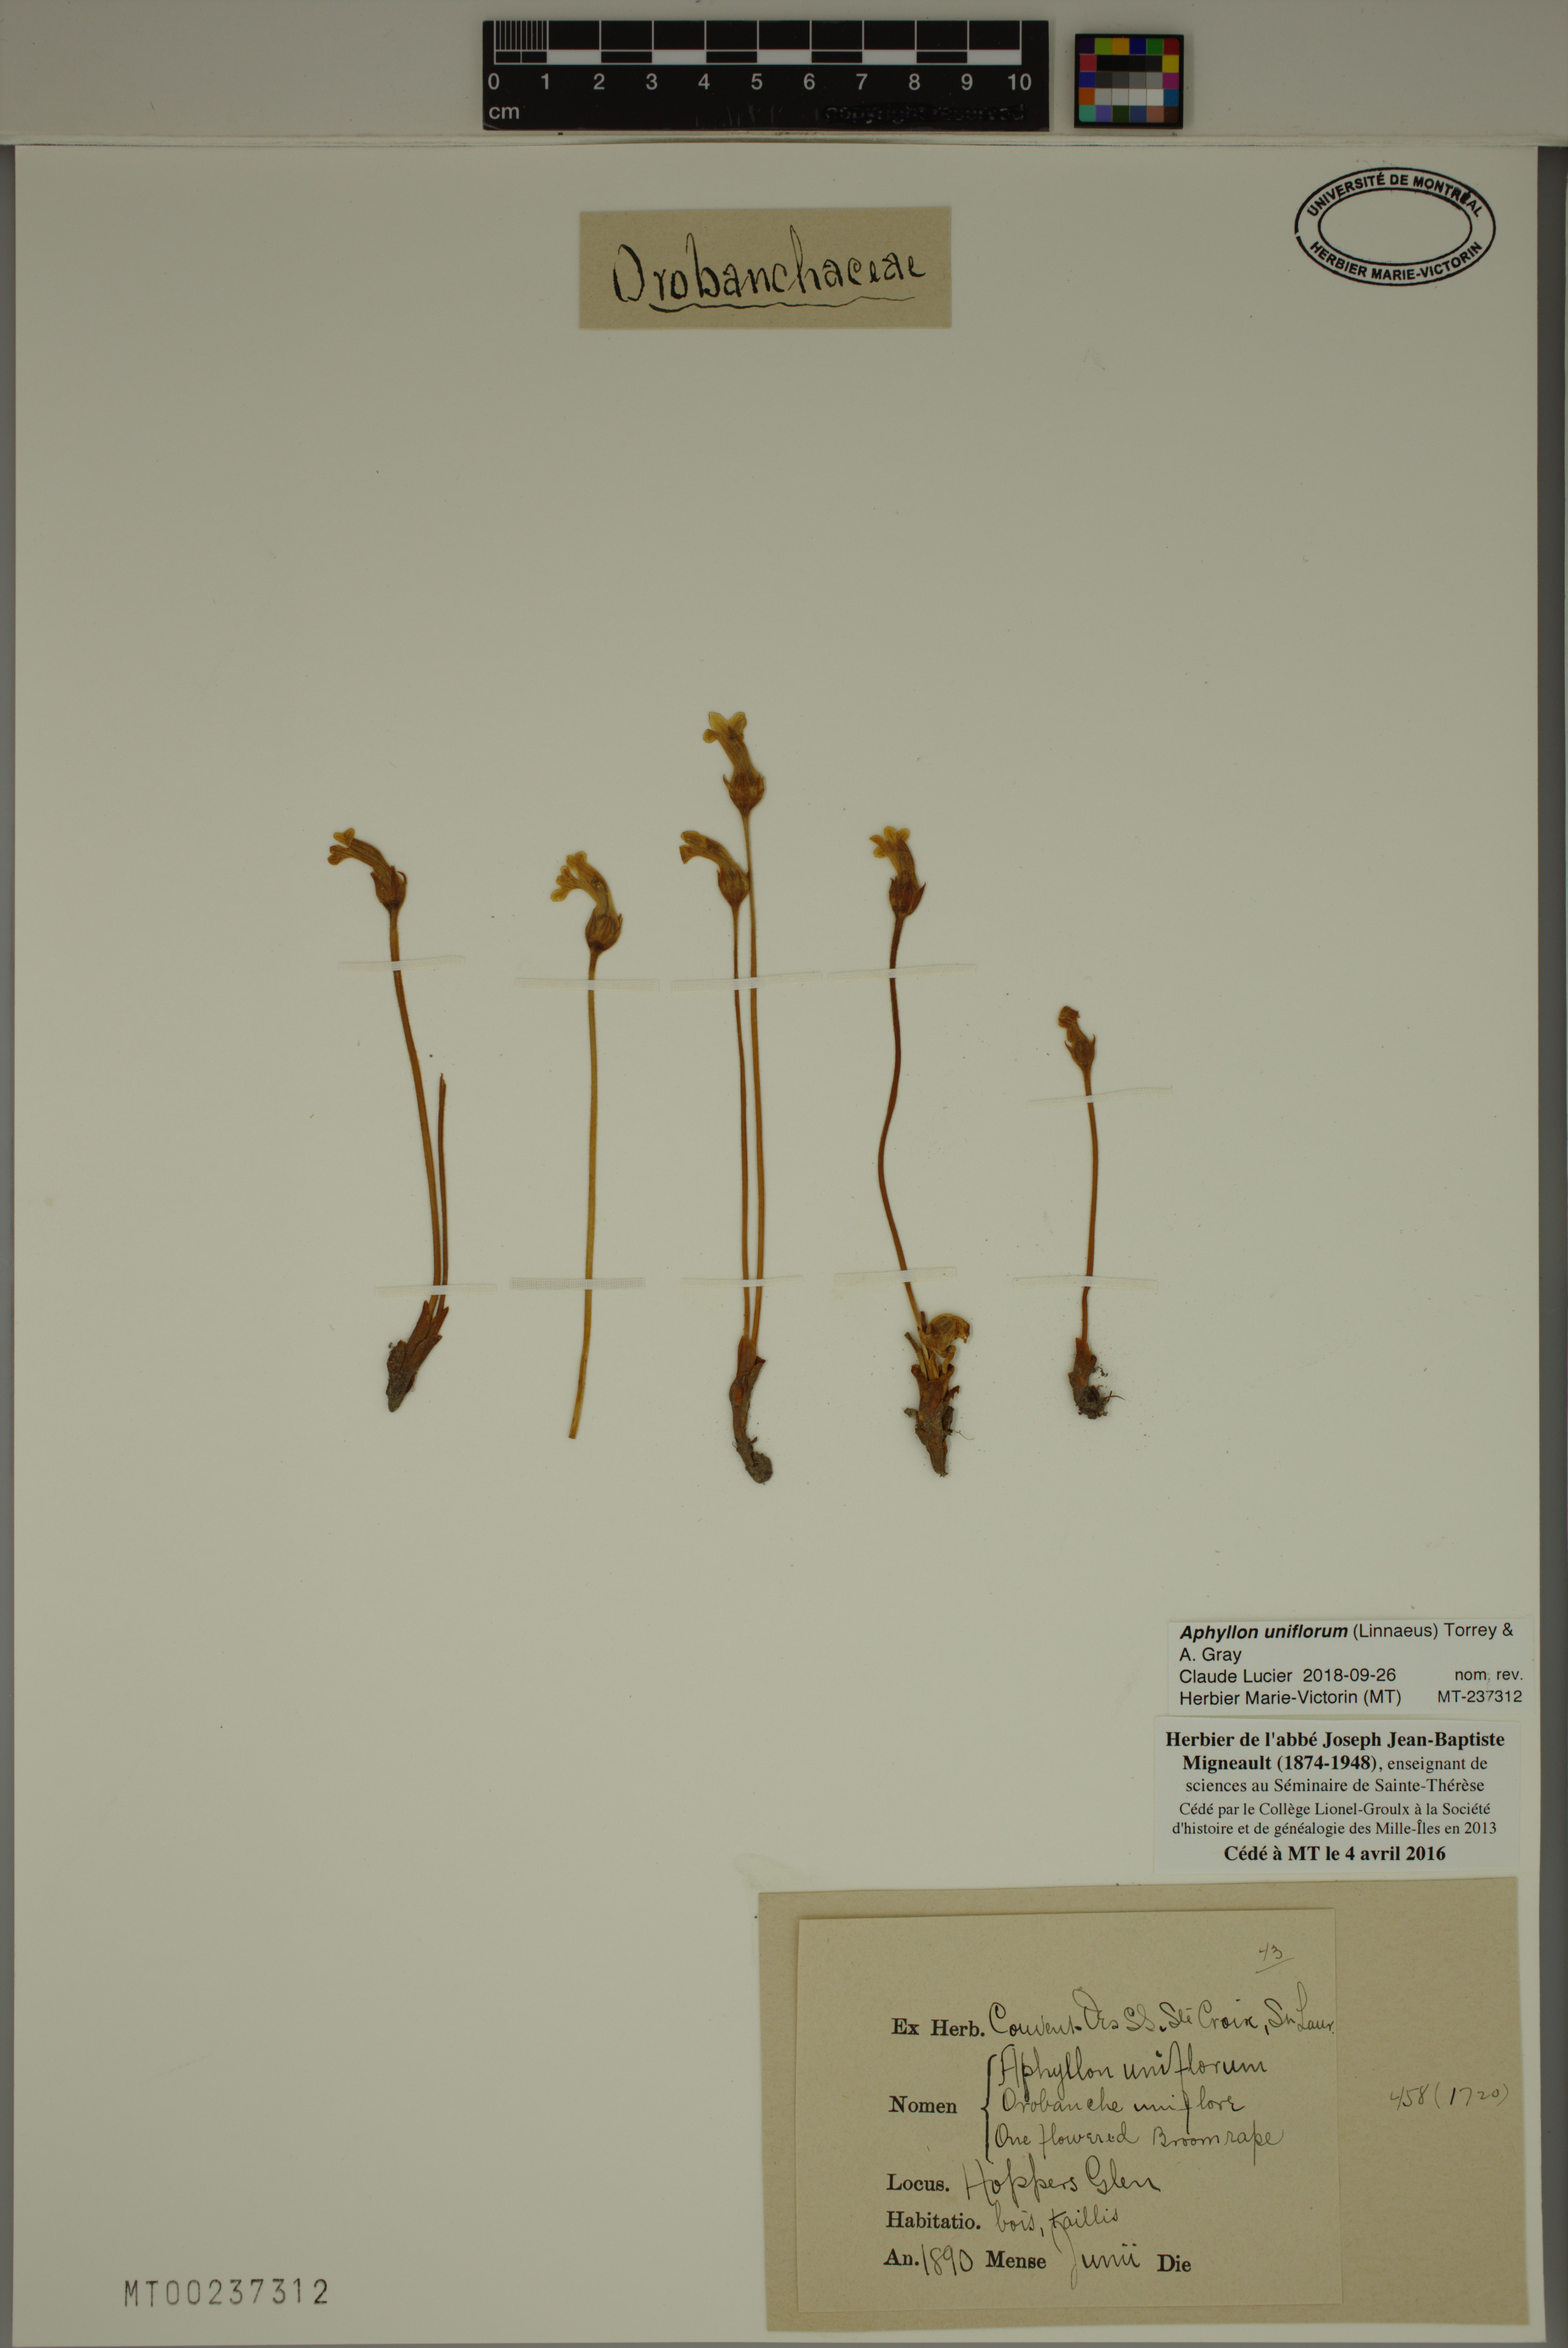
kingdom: Plantae
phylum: Tracheophyta
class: Magnoliopsida
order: Lamiales
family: Orobanchaceae
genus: Aphyllon
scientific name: Aphyllon uniflorum
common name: One-flowered broomrape
